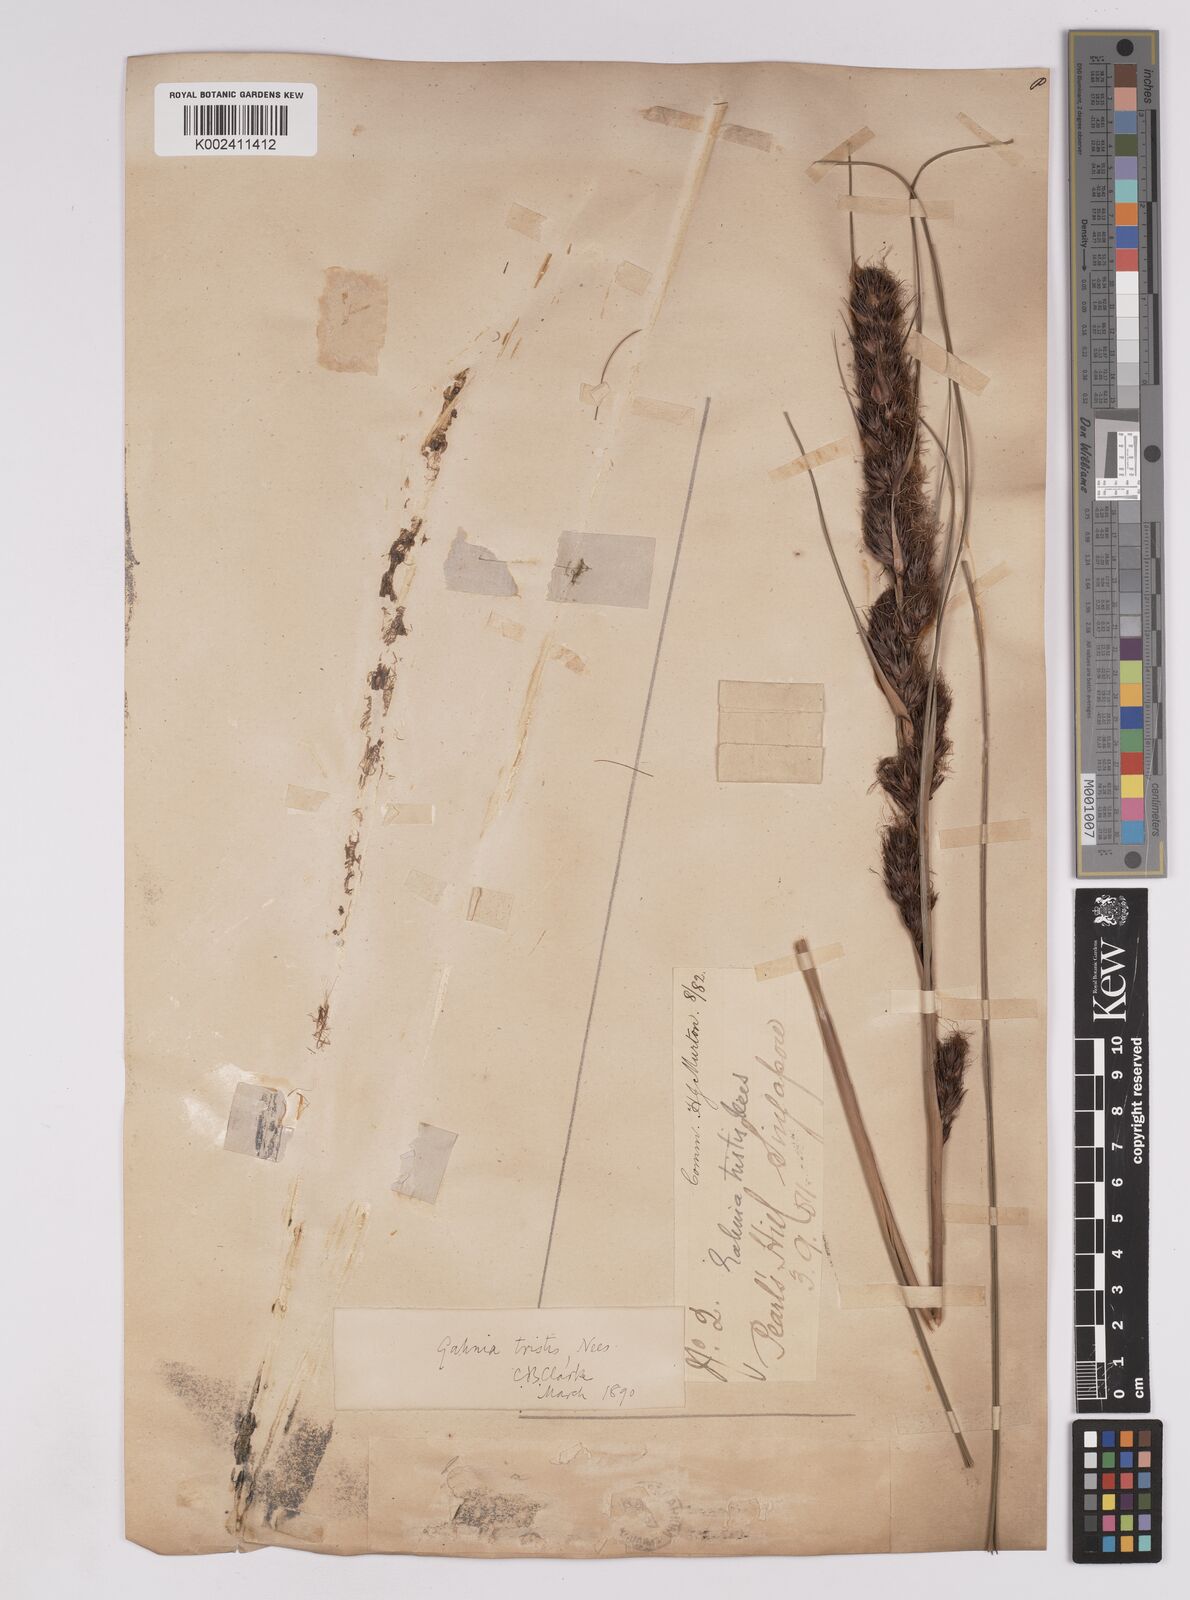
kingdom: Plantae
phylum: Tracheophyta
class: Liliopsida
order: Poales
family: Cyperaceae
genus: Gahnia
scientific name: Gahnia tristis
